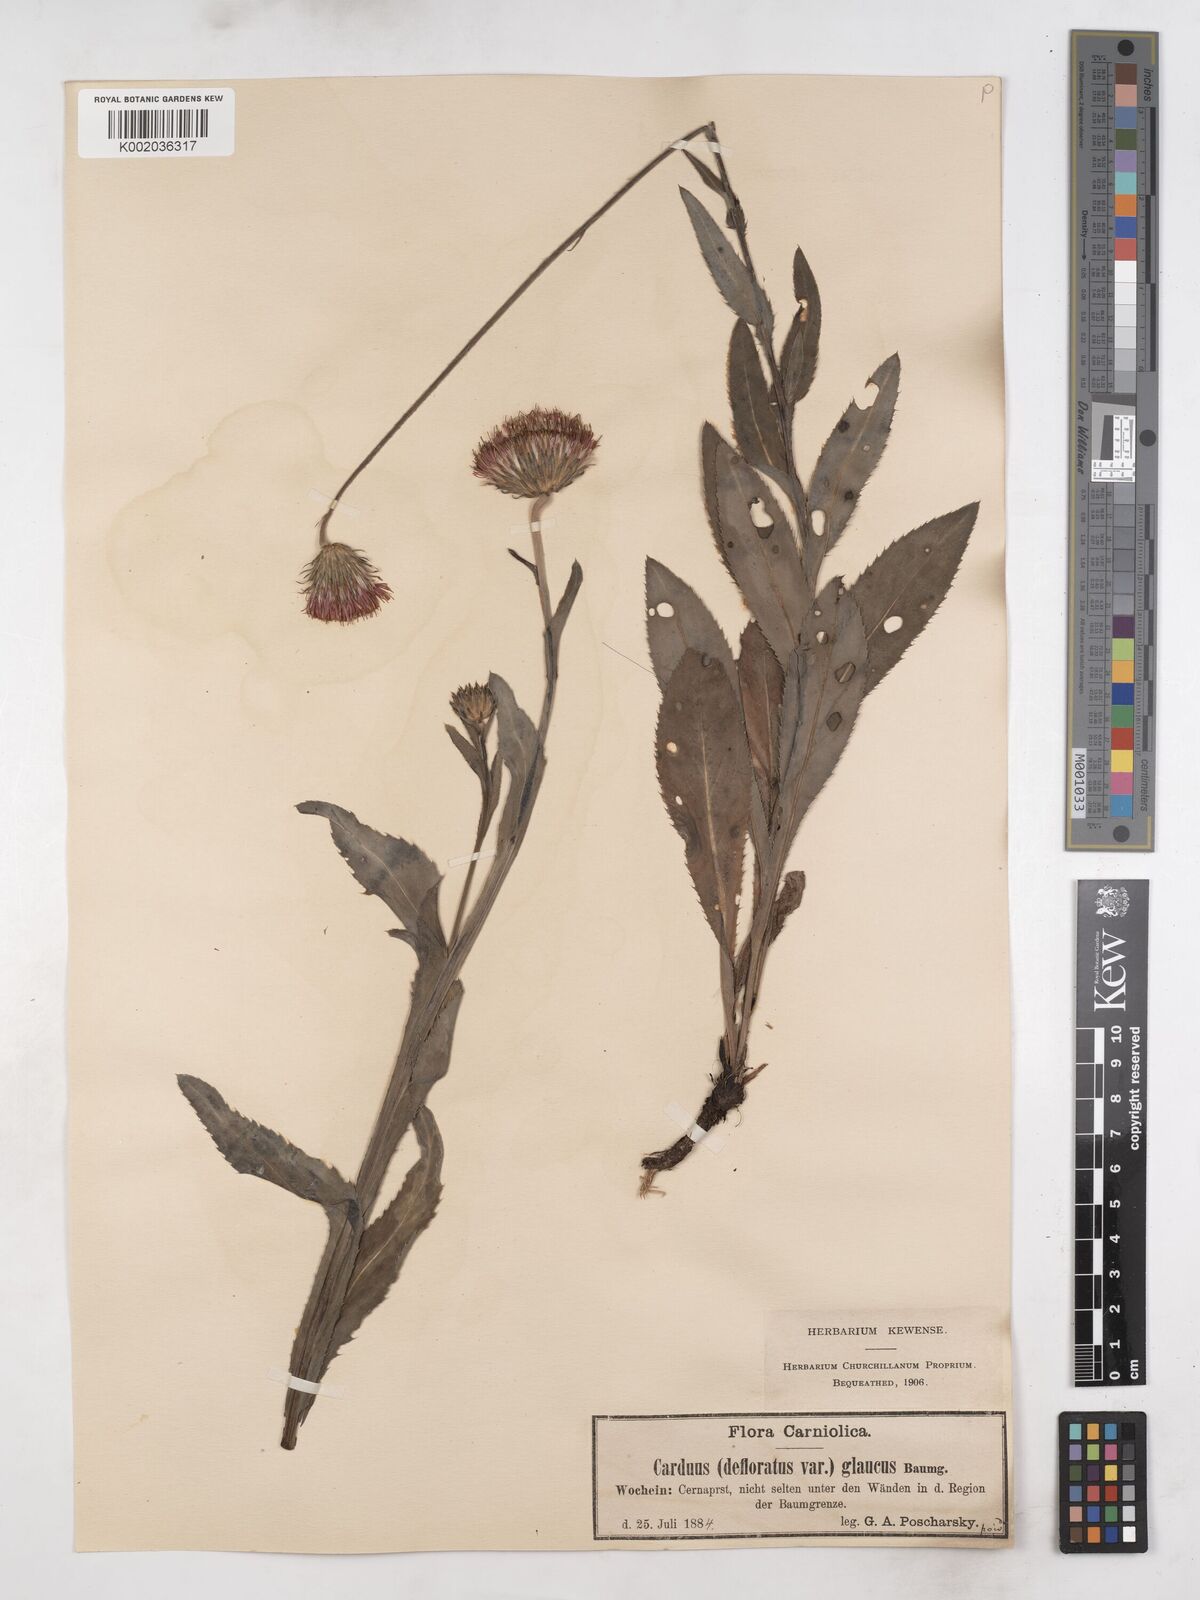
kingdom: Plantae
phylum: Tracheophyta
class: Magnoliopsida
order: Asterales
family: Asteraceae
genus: Carduus
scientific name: Carduus defloratus
